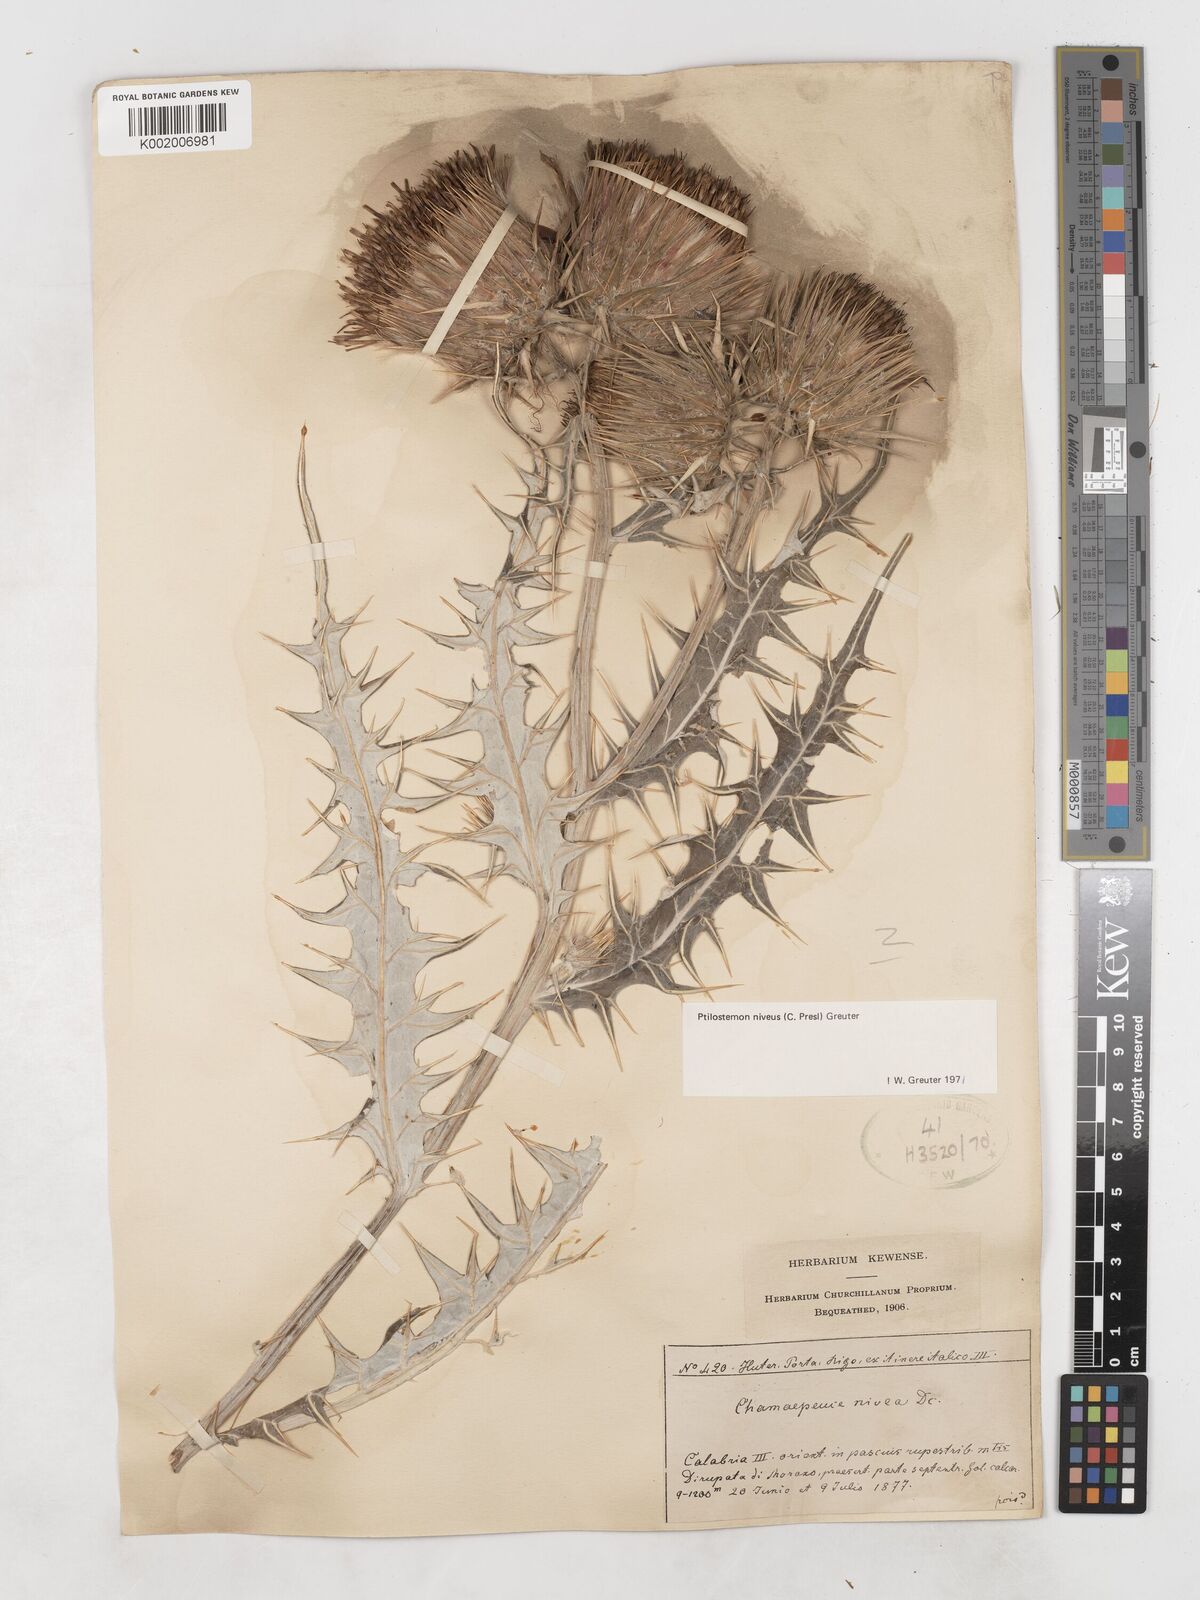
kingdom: Plantae
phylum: Tracheophyta
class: Magnoliopsida
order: Asterales
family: Asteraceae
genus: Ptilostemon
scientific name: Ptilostemon niveus
